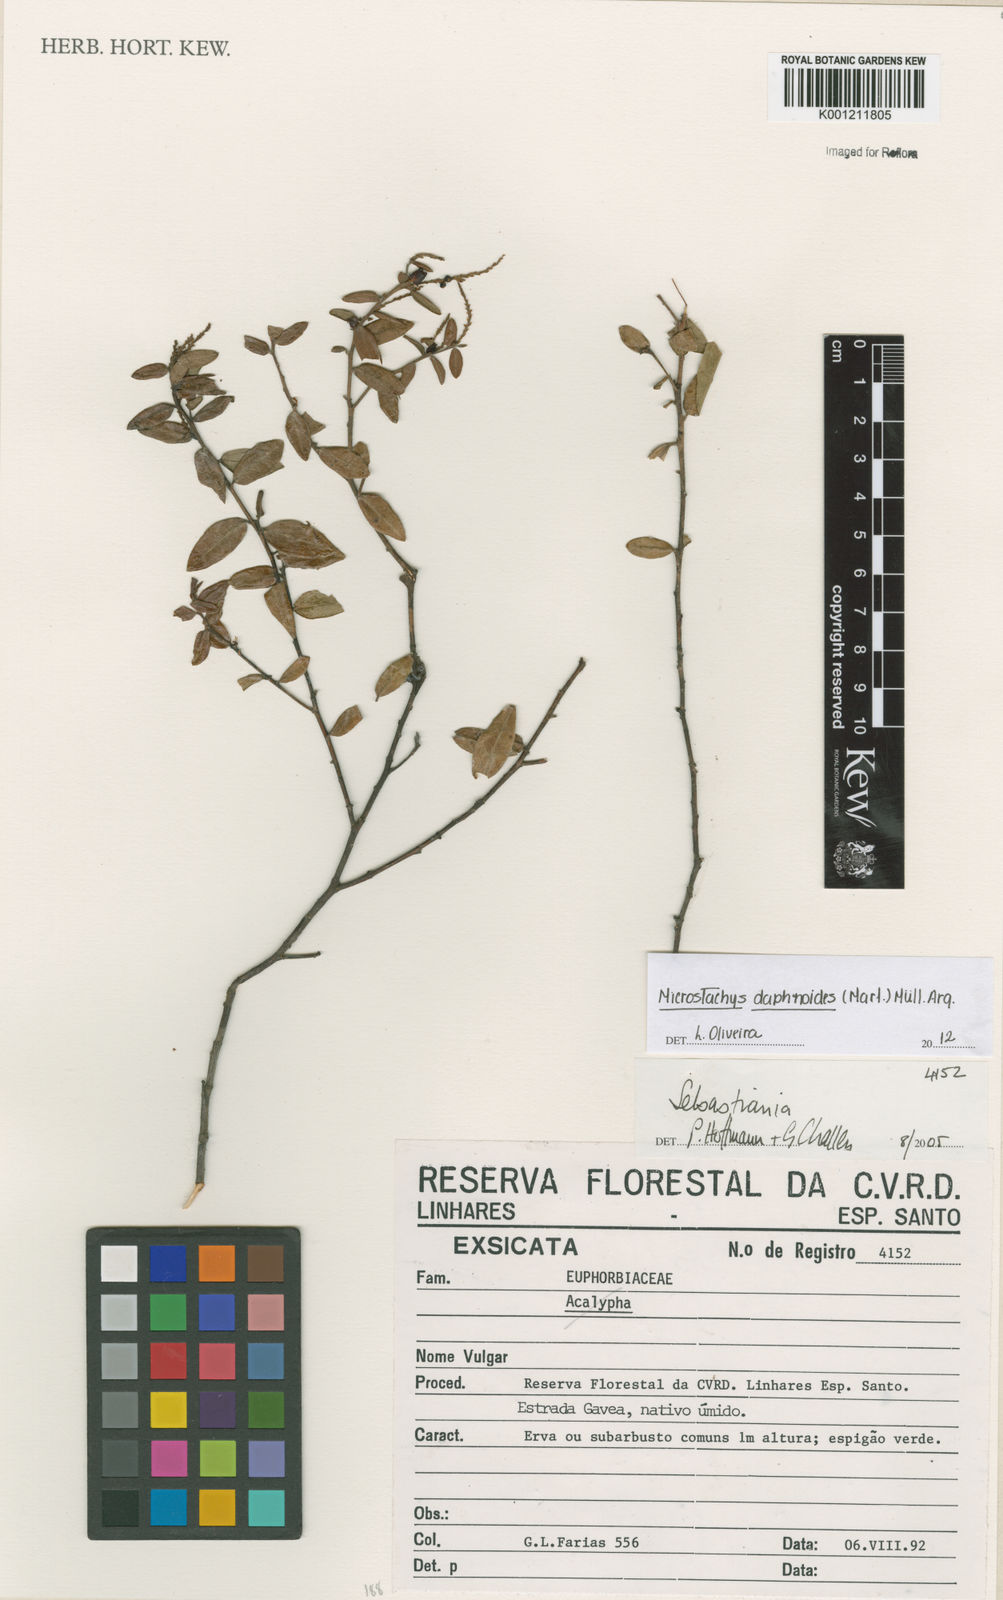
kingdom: Plantae
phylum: Tracheophyta
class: Magnoliopsida
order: Malpighiales
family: Euphorbiaceae
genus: Microstachys
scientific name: Microstachys
